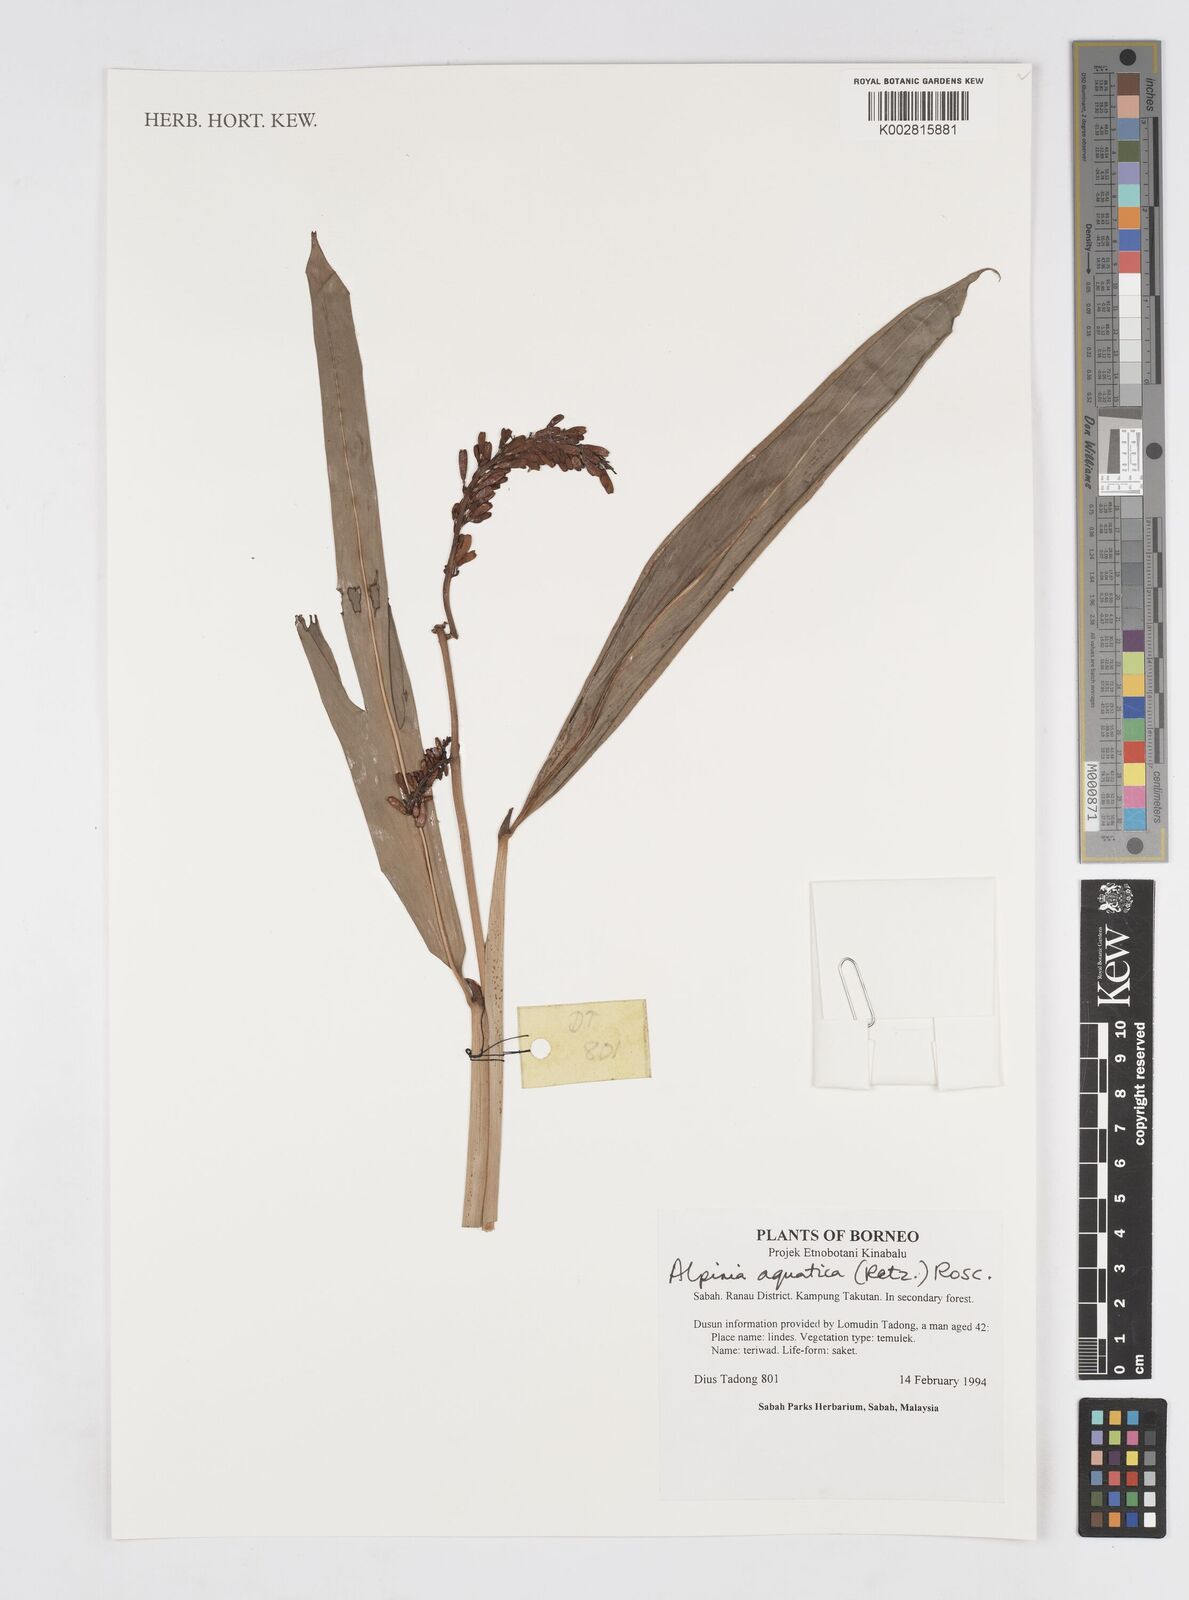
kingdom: Plantae
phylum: Tracheophyta
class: Liliopsida
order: Zingiberales
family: Zingiberaceae
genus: Alpinia
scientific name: Alpinia aquatica
